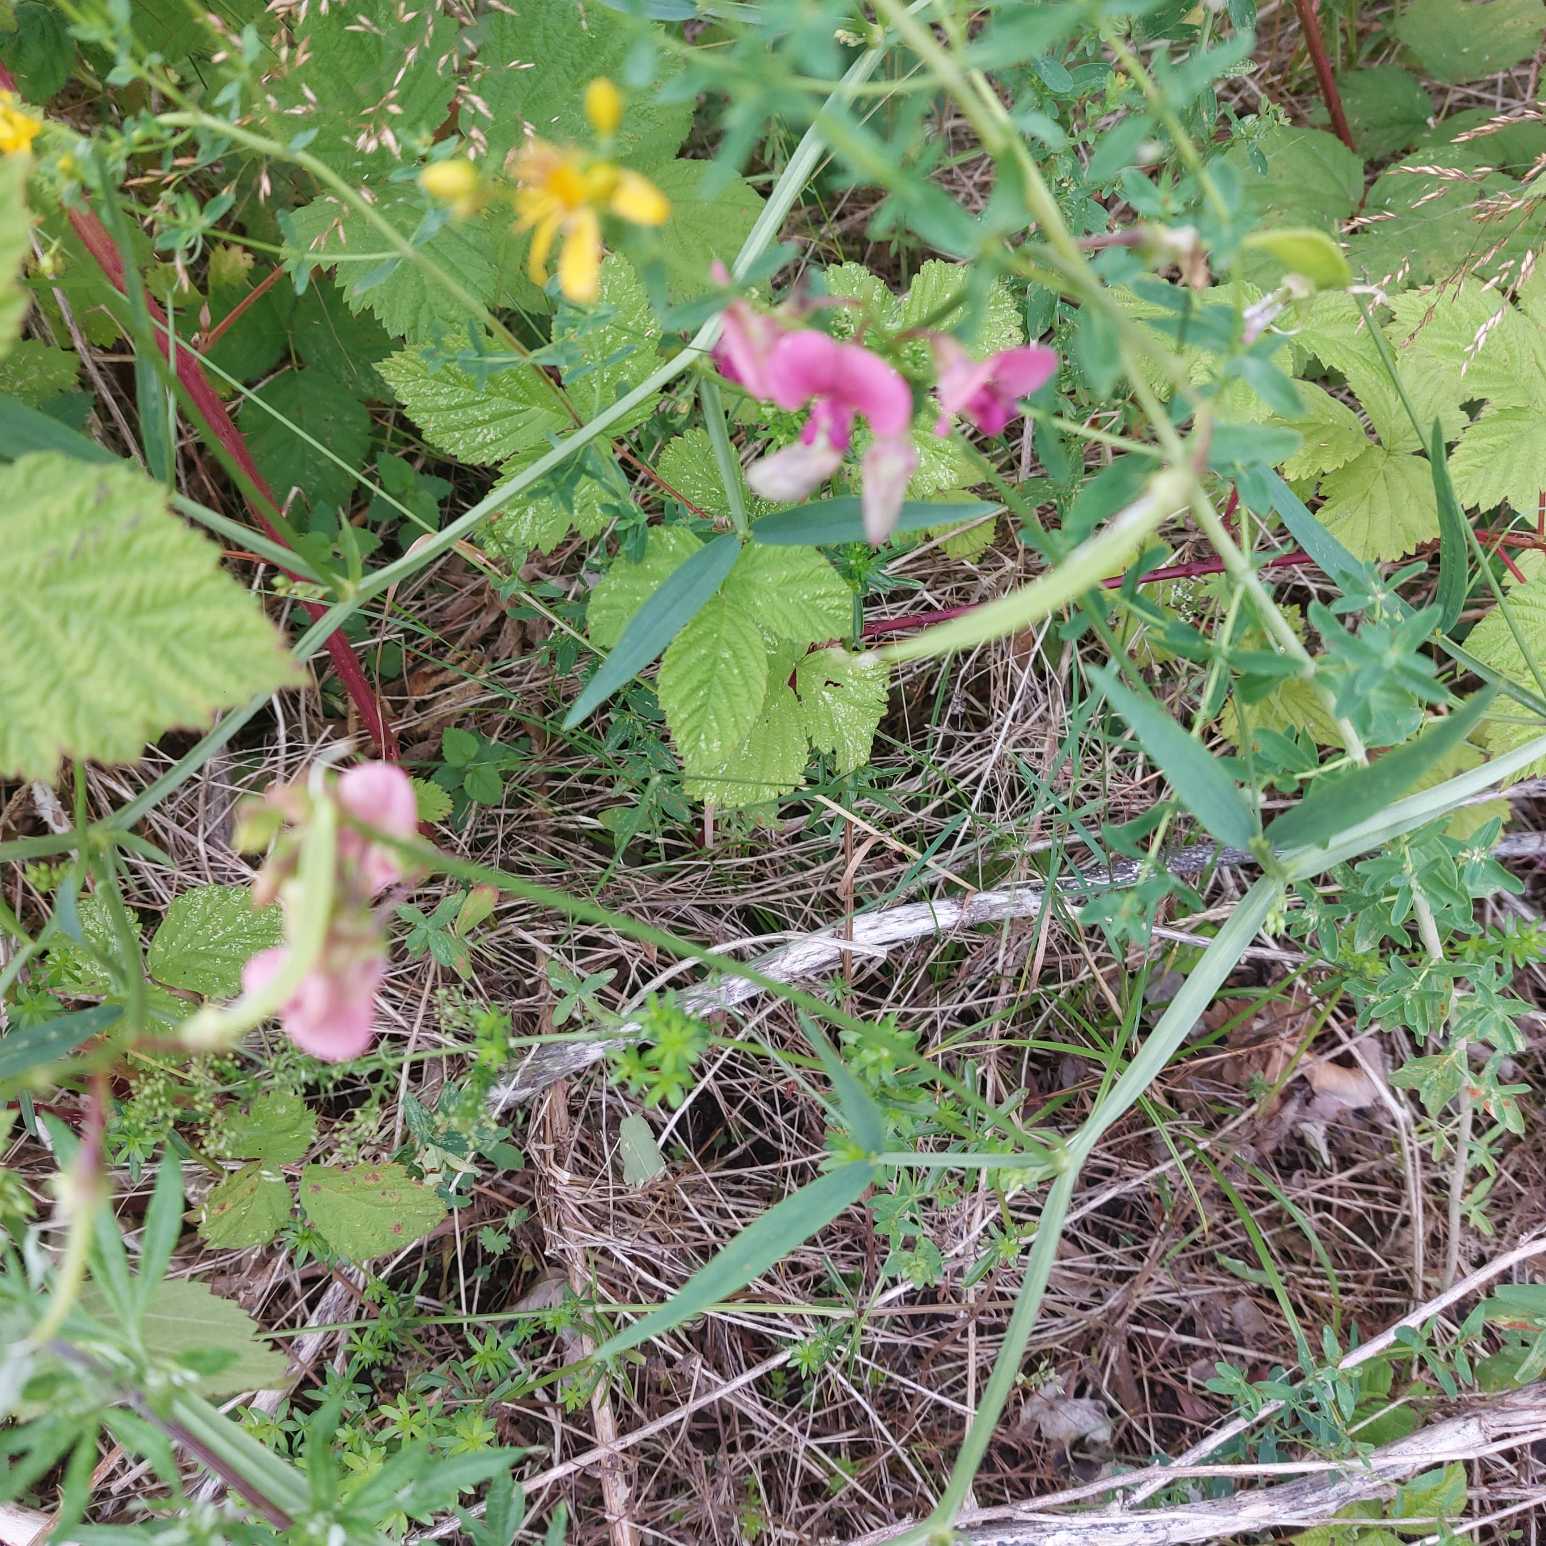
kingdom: Plantae
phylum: Tracheophyta
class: Magnoliopsida
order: Fabales
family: Fabaceae
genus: Lathyrus
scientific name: Lathyrus sylvestris
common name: Skov-fladbælg
